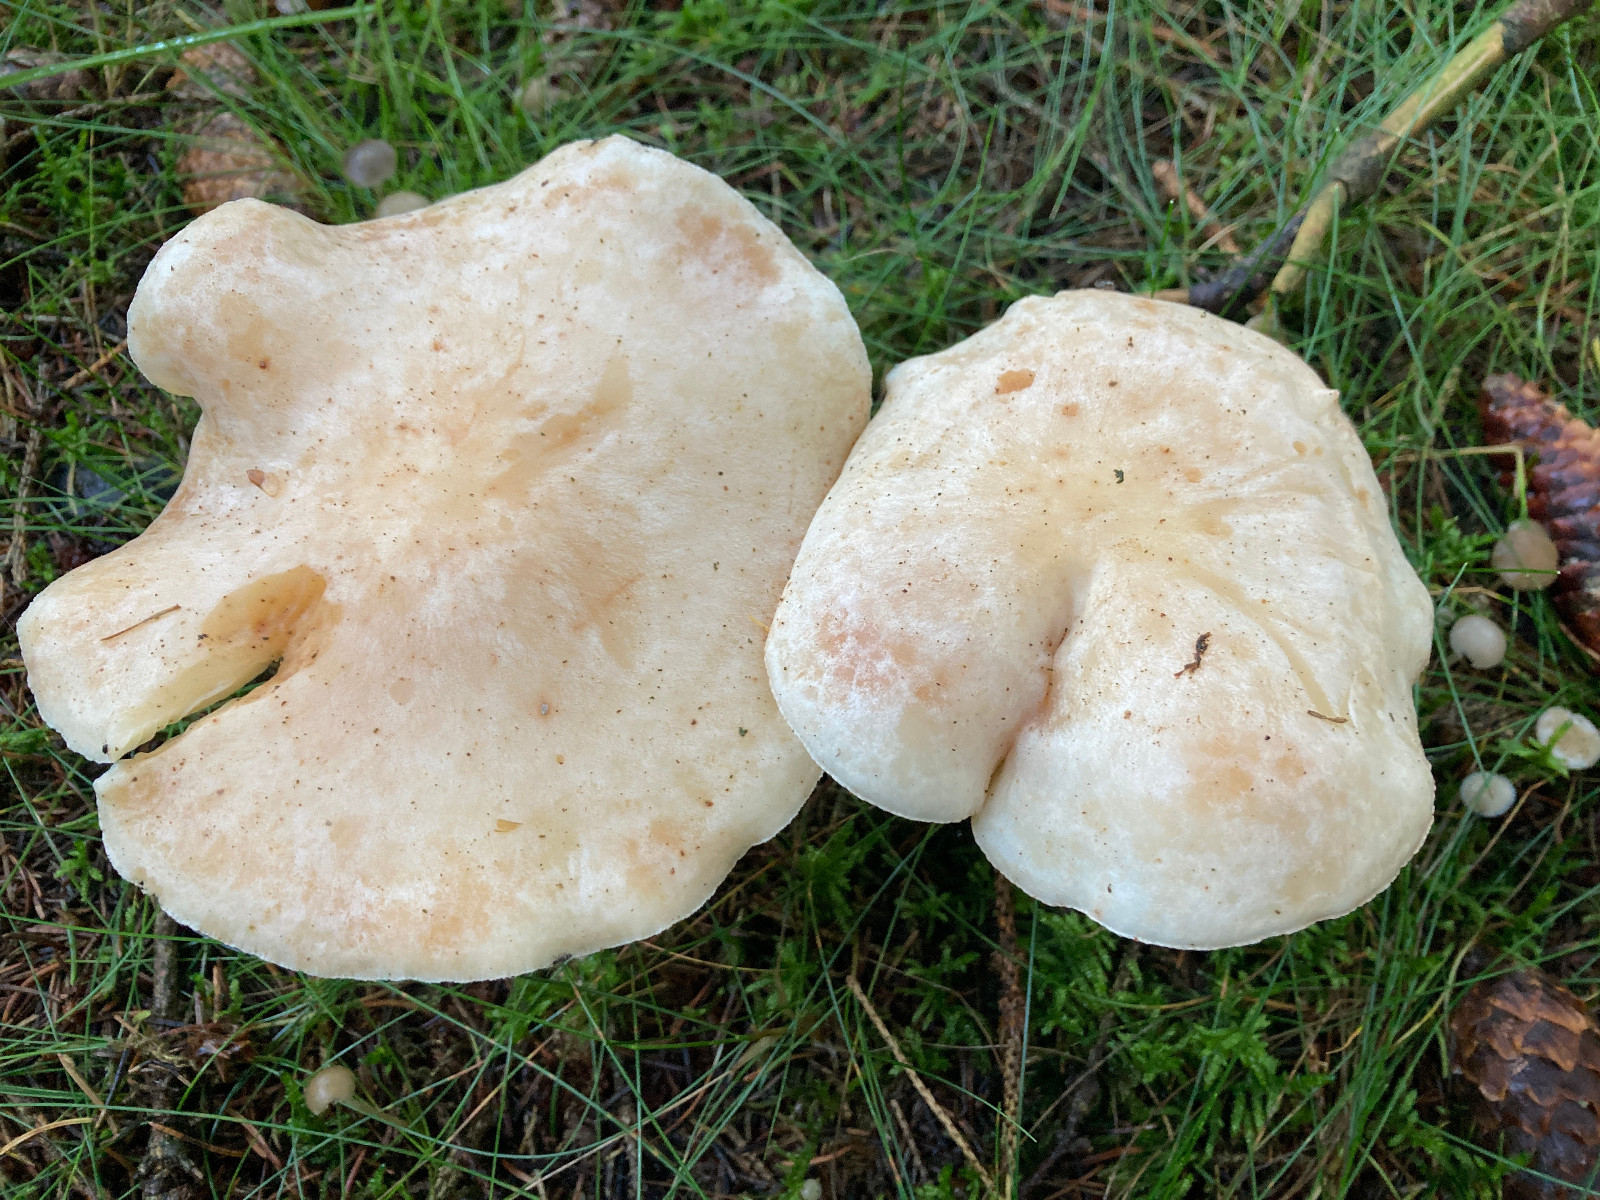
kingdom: Fungi
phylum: Basidiomycota
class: Agaricomycetes
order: Agaricales
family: Omphalotaceae
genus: Rhodocollybia
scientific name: Rhodocollybia maculata
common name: plettet fladhat
